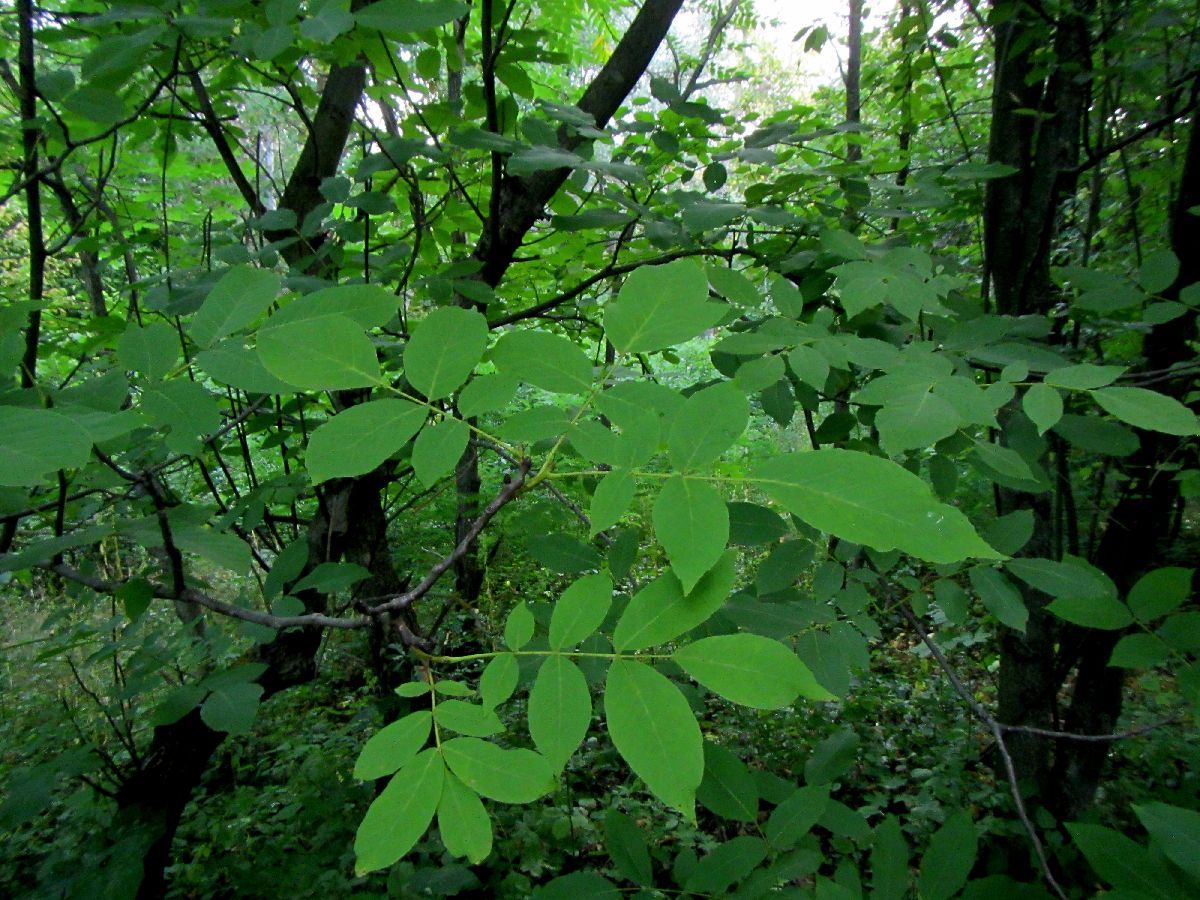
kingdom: Plantae
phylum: Tracheophyta
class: Magnoliopsida
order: Fagales
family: Juglandaceae
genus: Juglans
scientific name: Juglans regia
